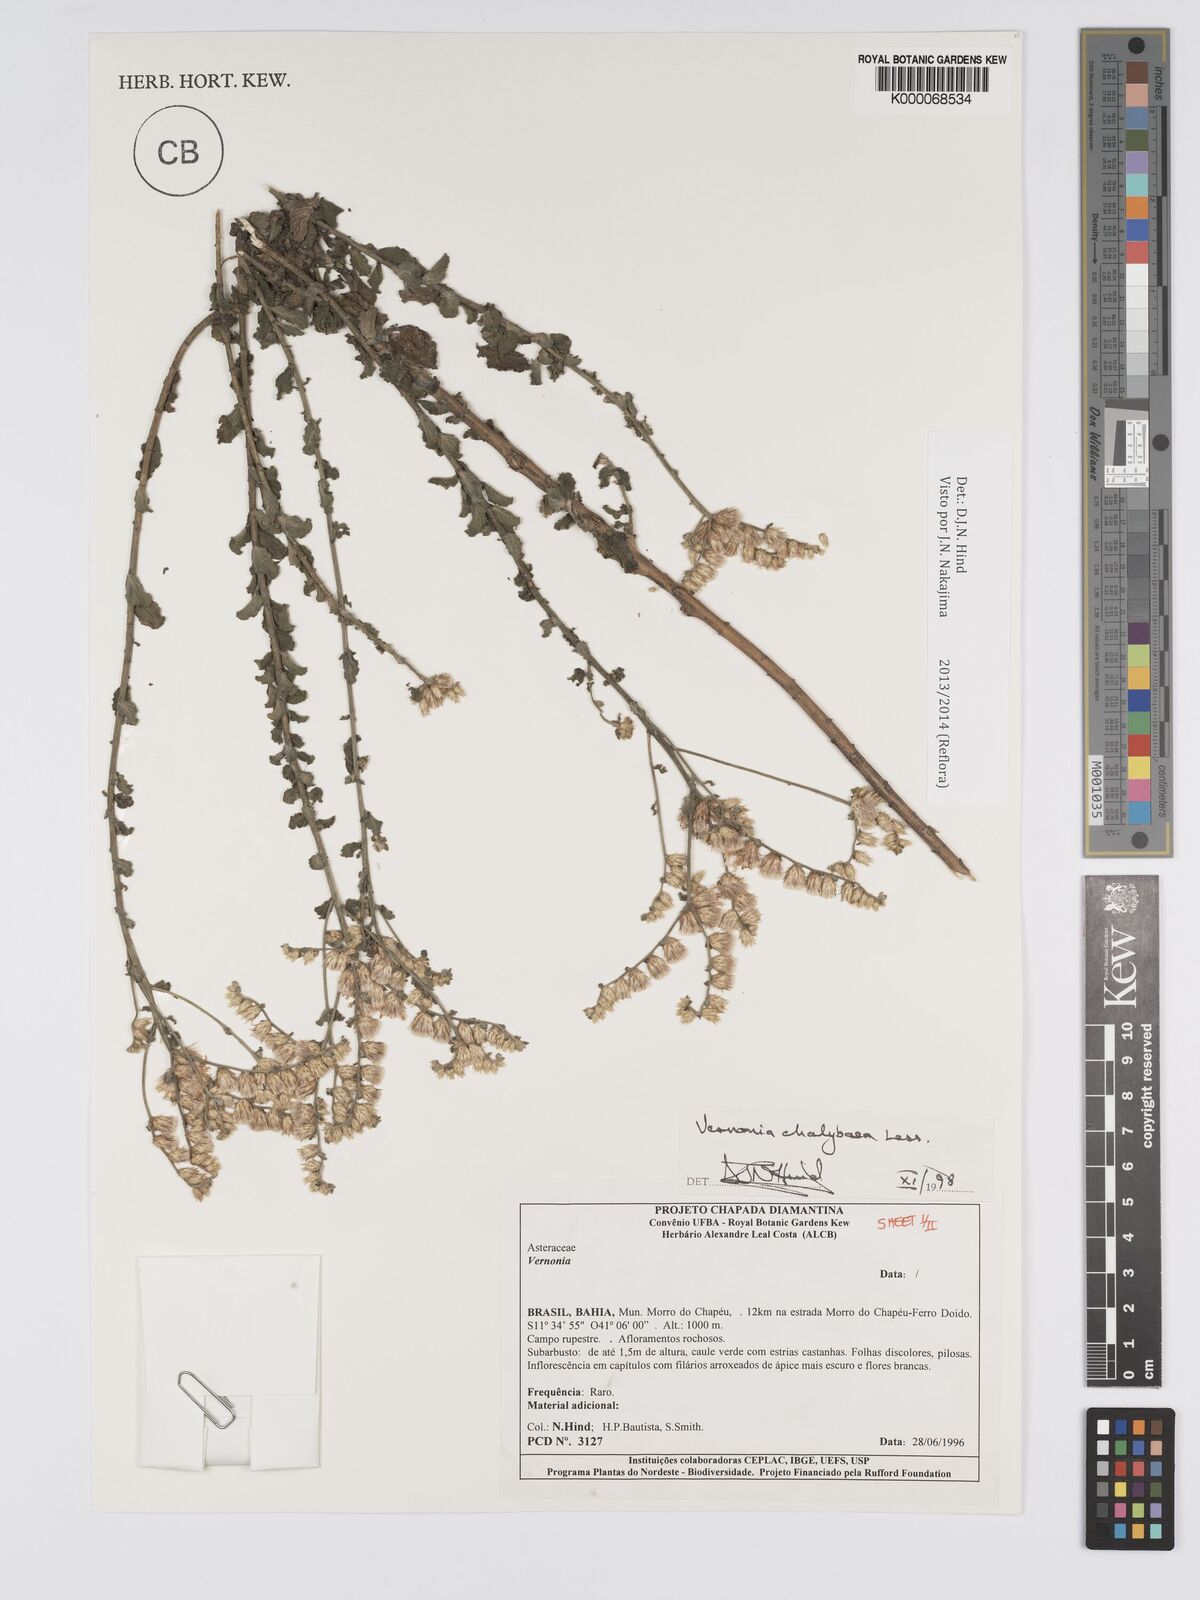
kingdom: Plantae
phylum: Tracheophyta
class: Magnoliopsida
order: Asterales
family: Asteraceae
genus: Lepidaploa
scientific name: Lepidaploa chalybaea
